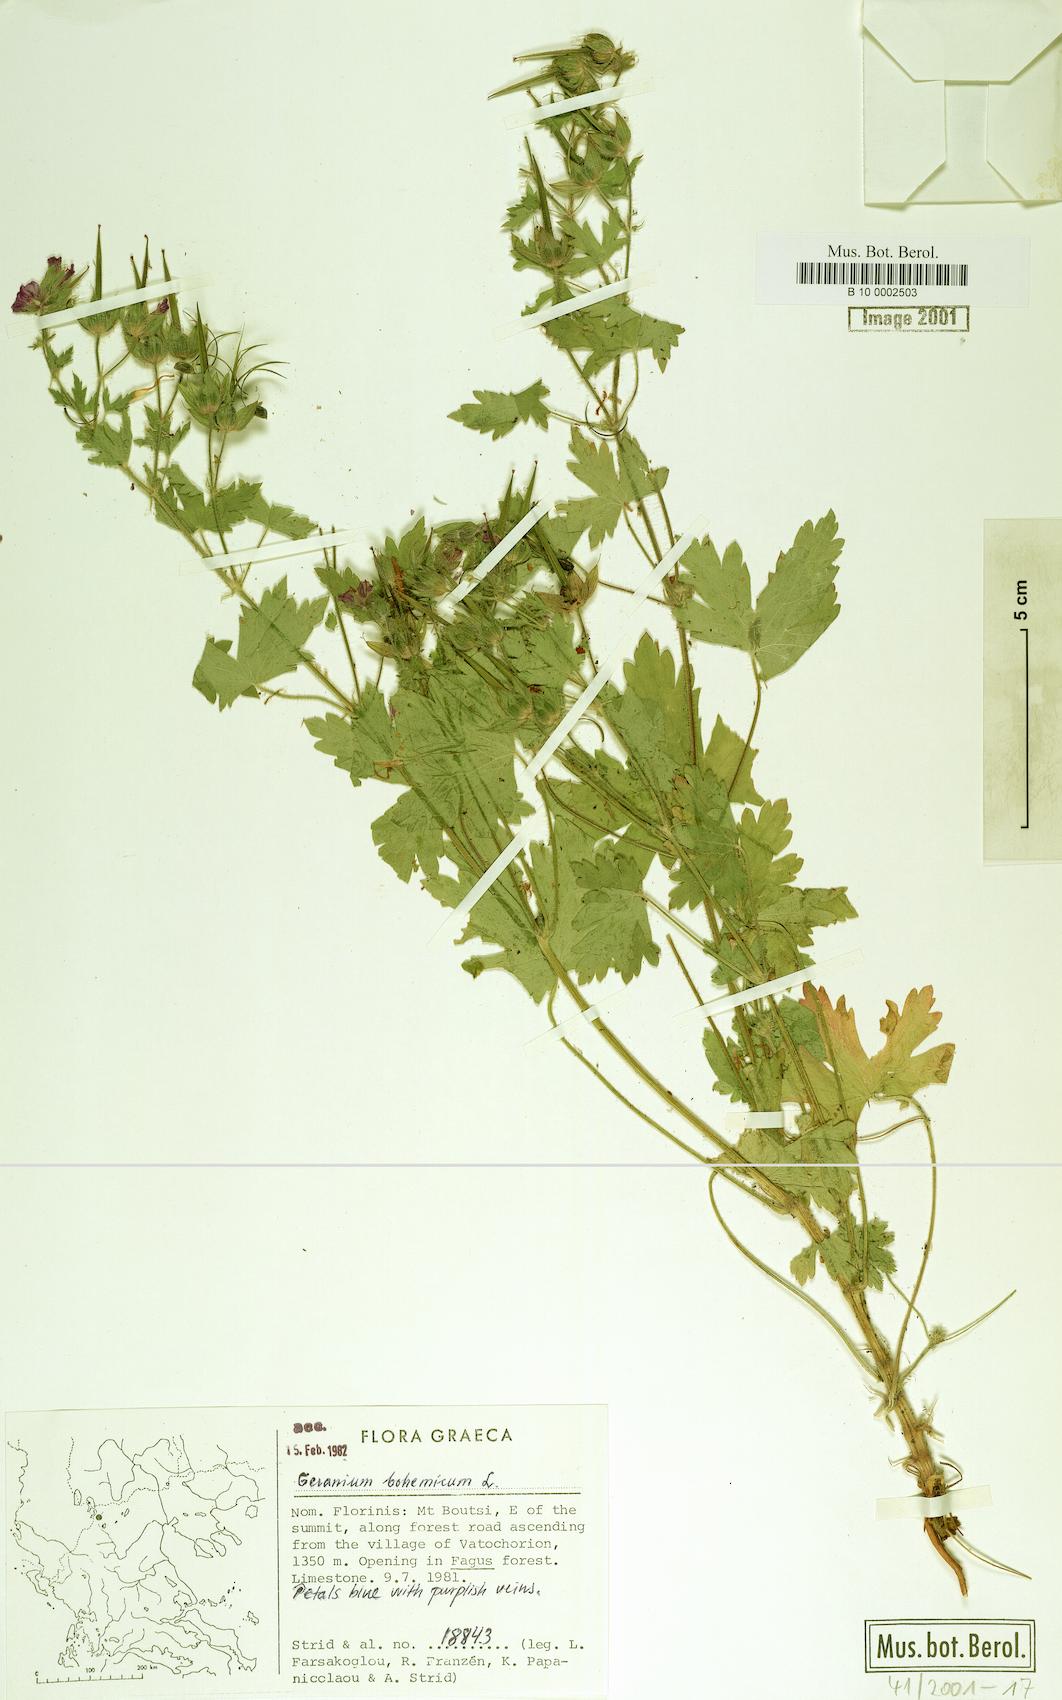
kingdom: Plantae
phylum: Tracheophyta
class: Magnoliopsida
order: Geraniales
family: Geraniaceae
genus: Geranium
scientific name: Geranium bohemicum
